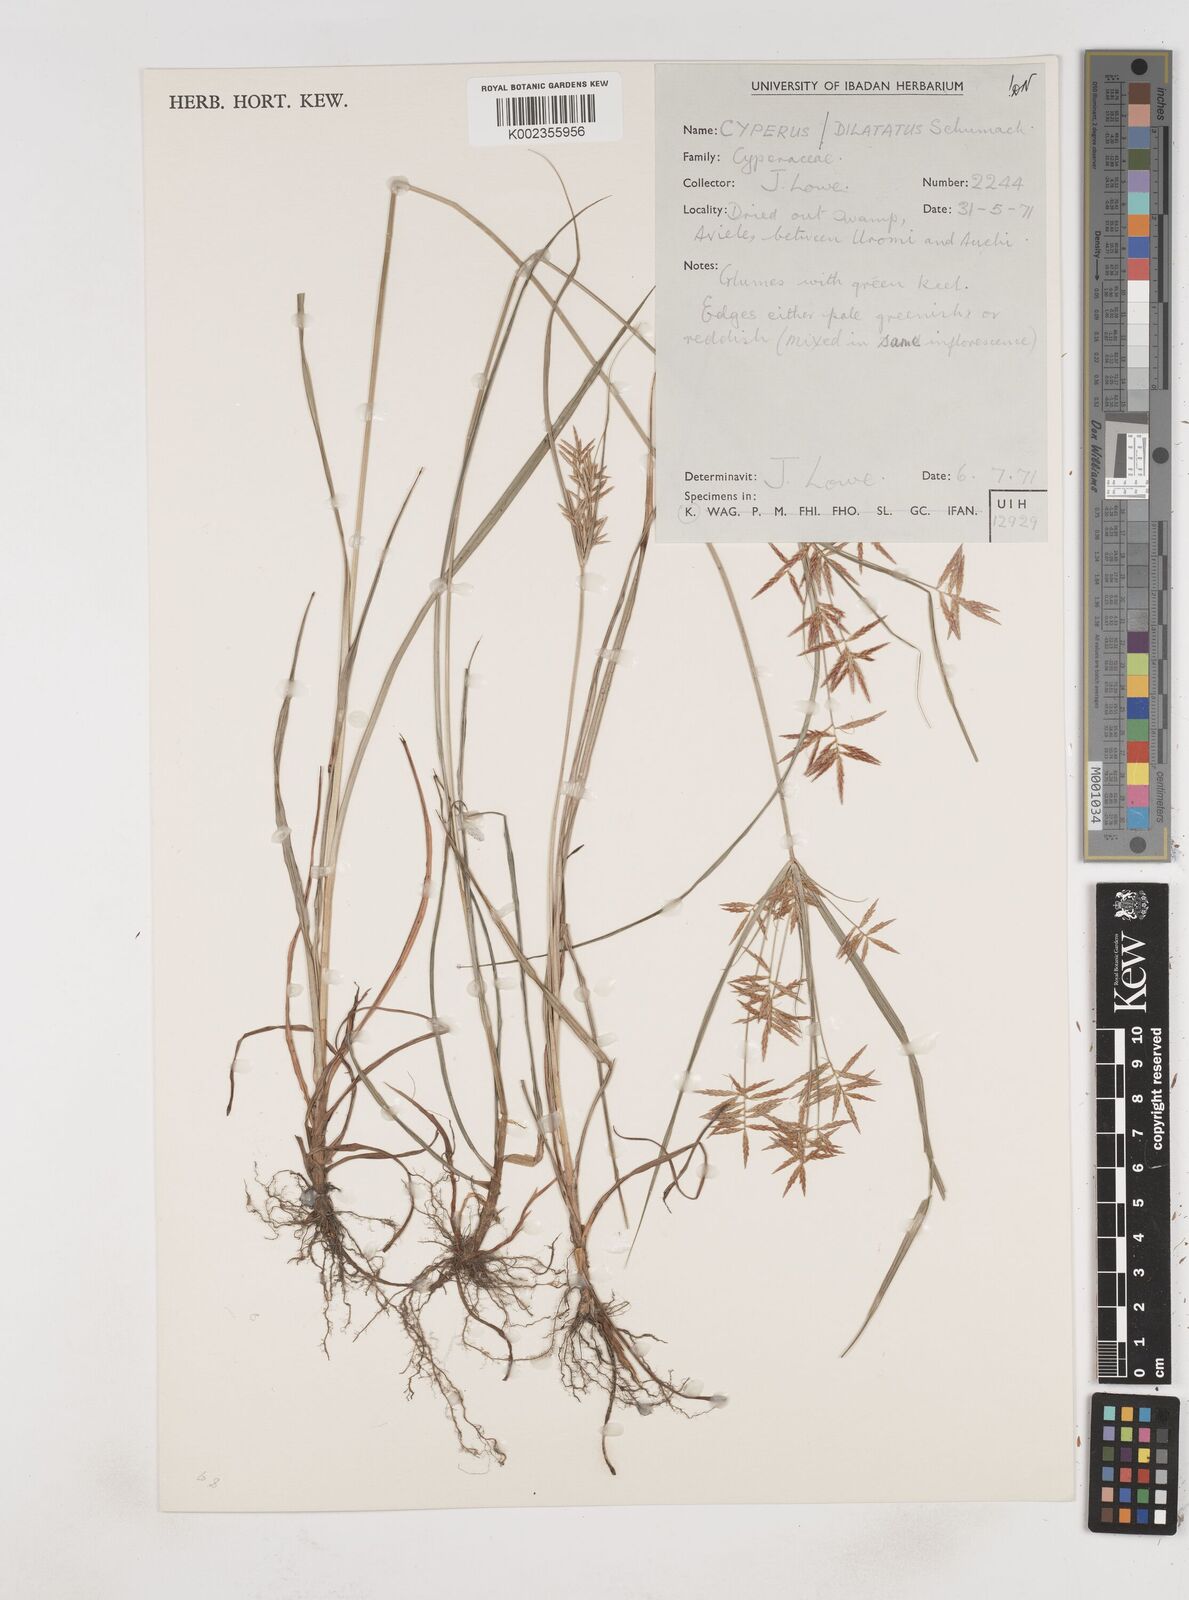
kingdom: Plantae
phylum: Tracheophyta
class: Liliopsida
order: Poales
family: Cyperaceae
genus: Cyperus
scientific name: Cyperus dilatatus
